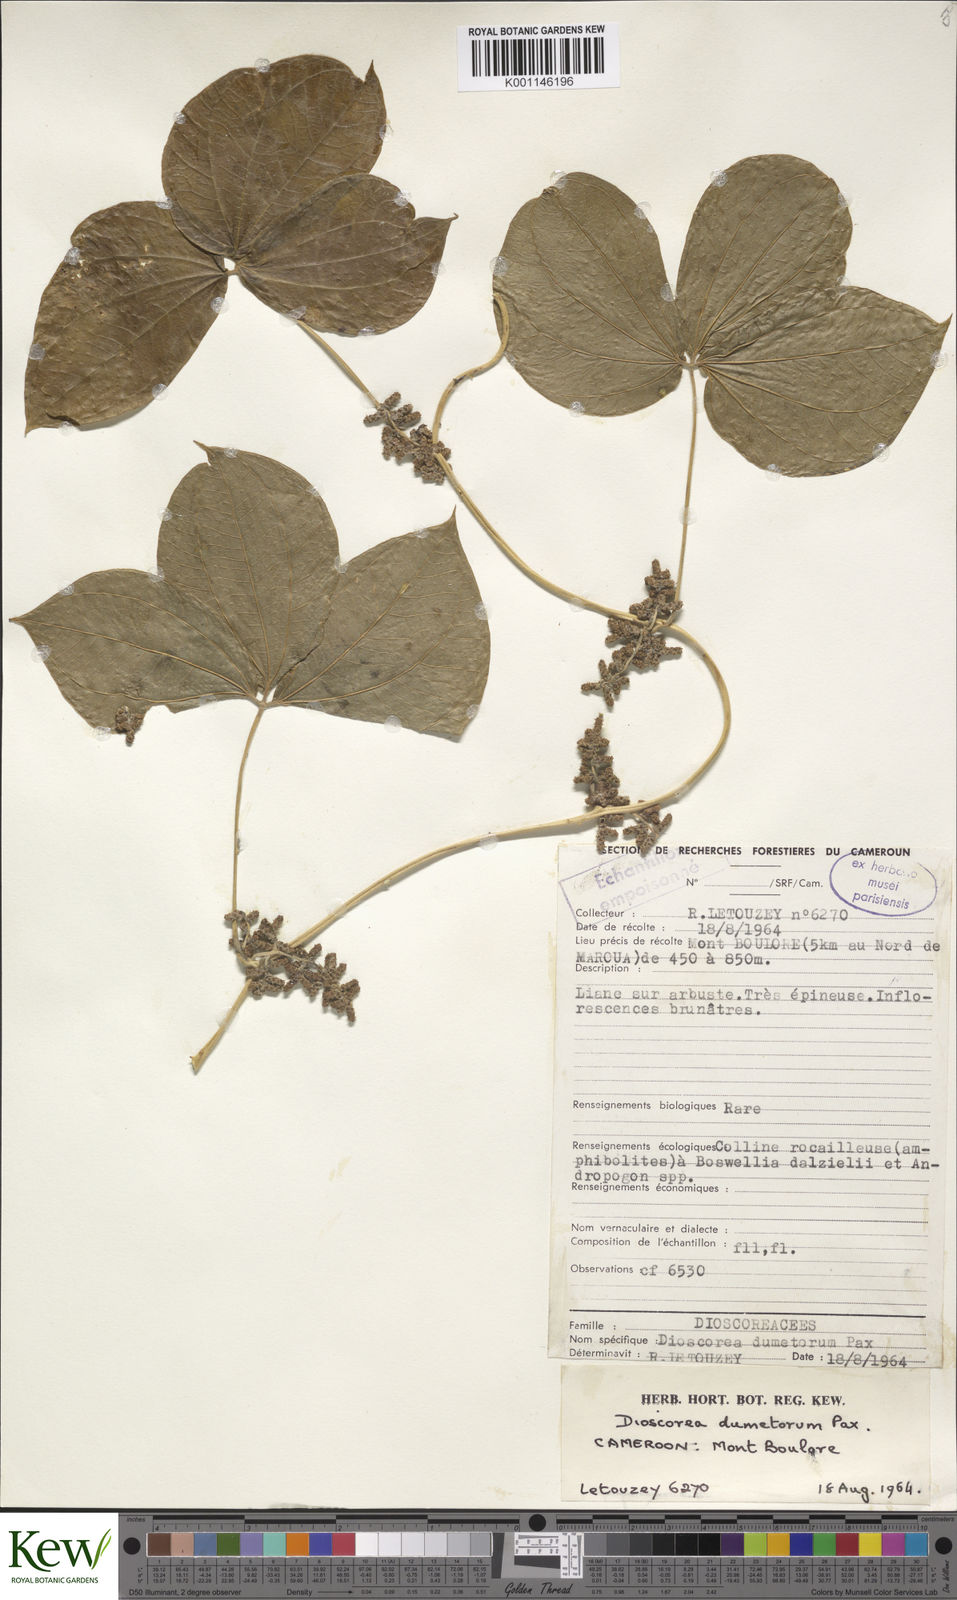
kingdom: Plantae
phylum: Tracheophyta
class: Liliopsida
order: Dioscoreales
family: Dioscoreaceae
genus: Dioscorea
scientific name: Dioscorea dumetorum
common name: African bitter yam
